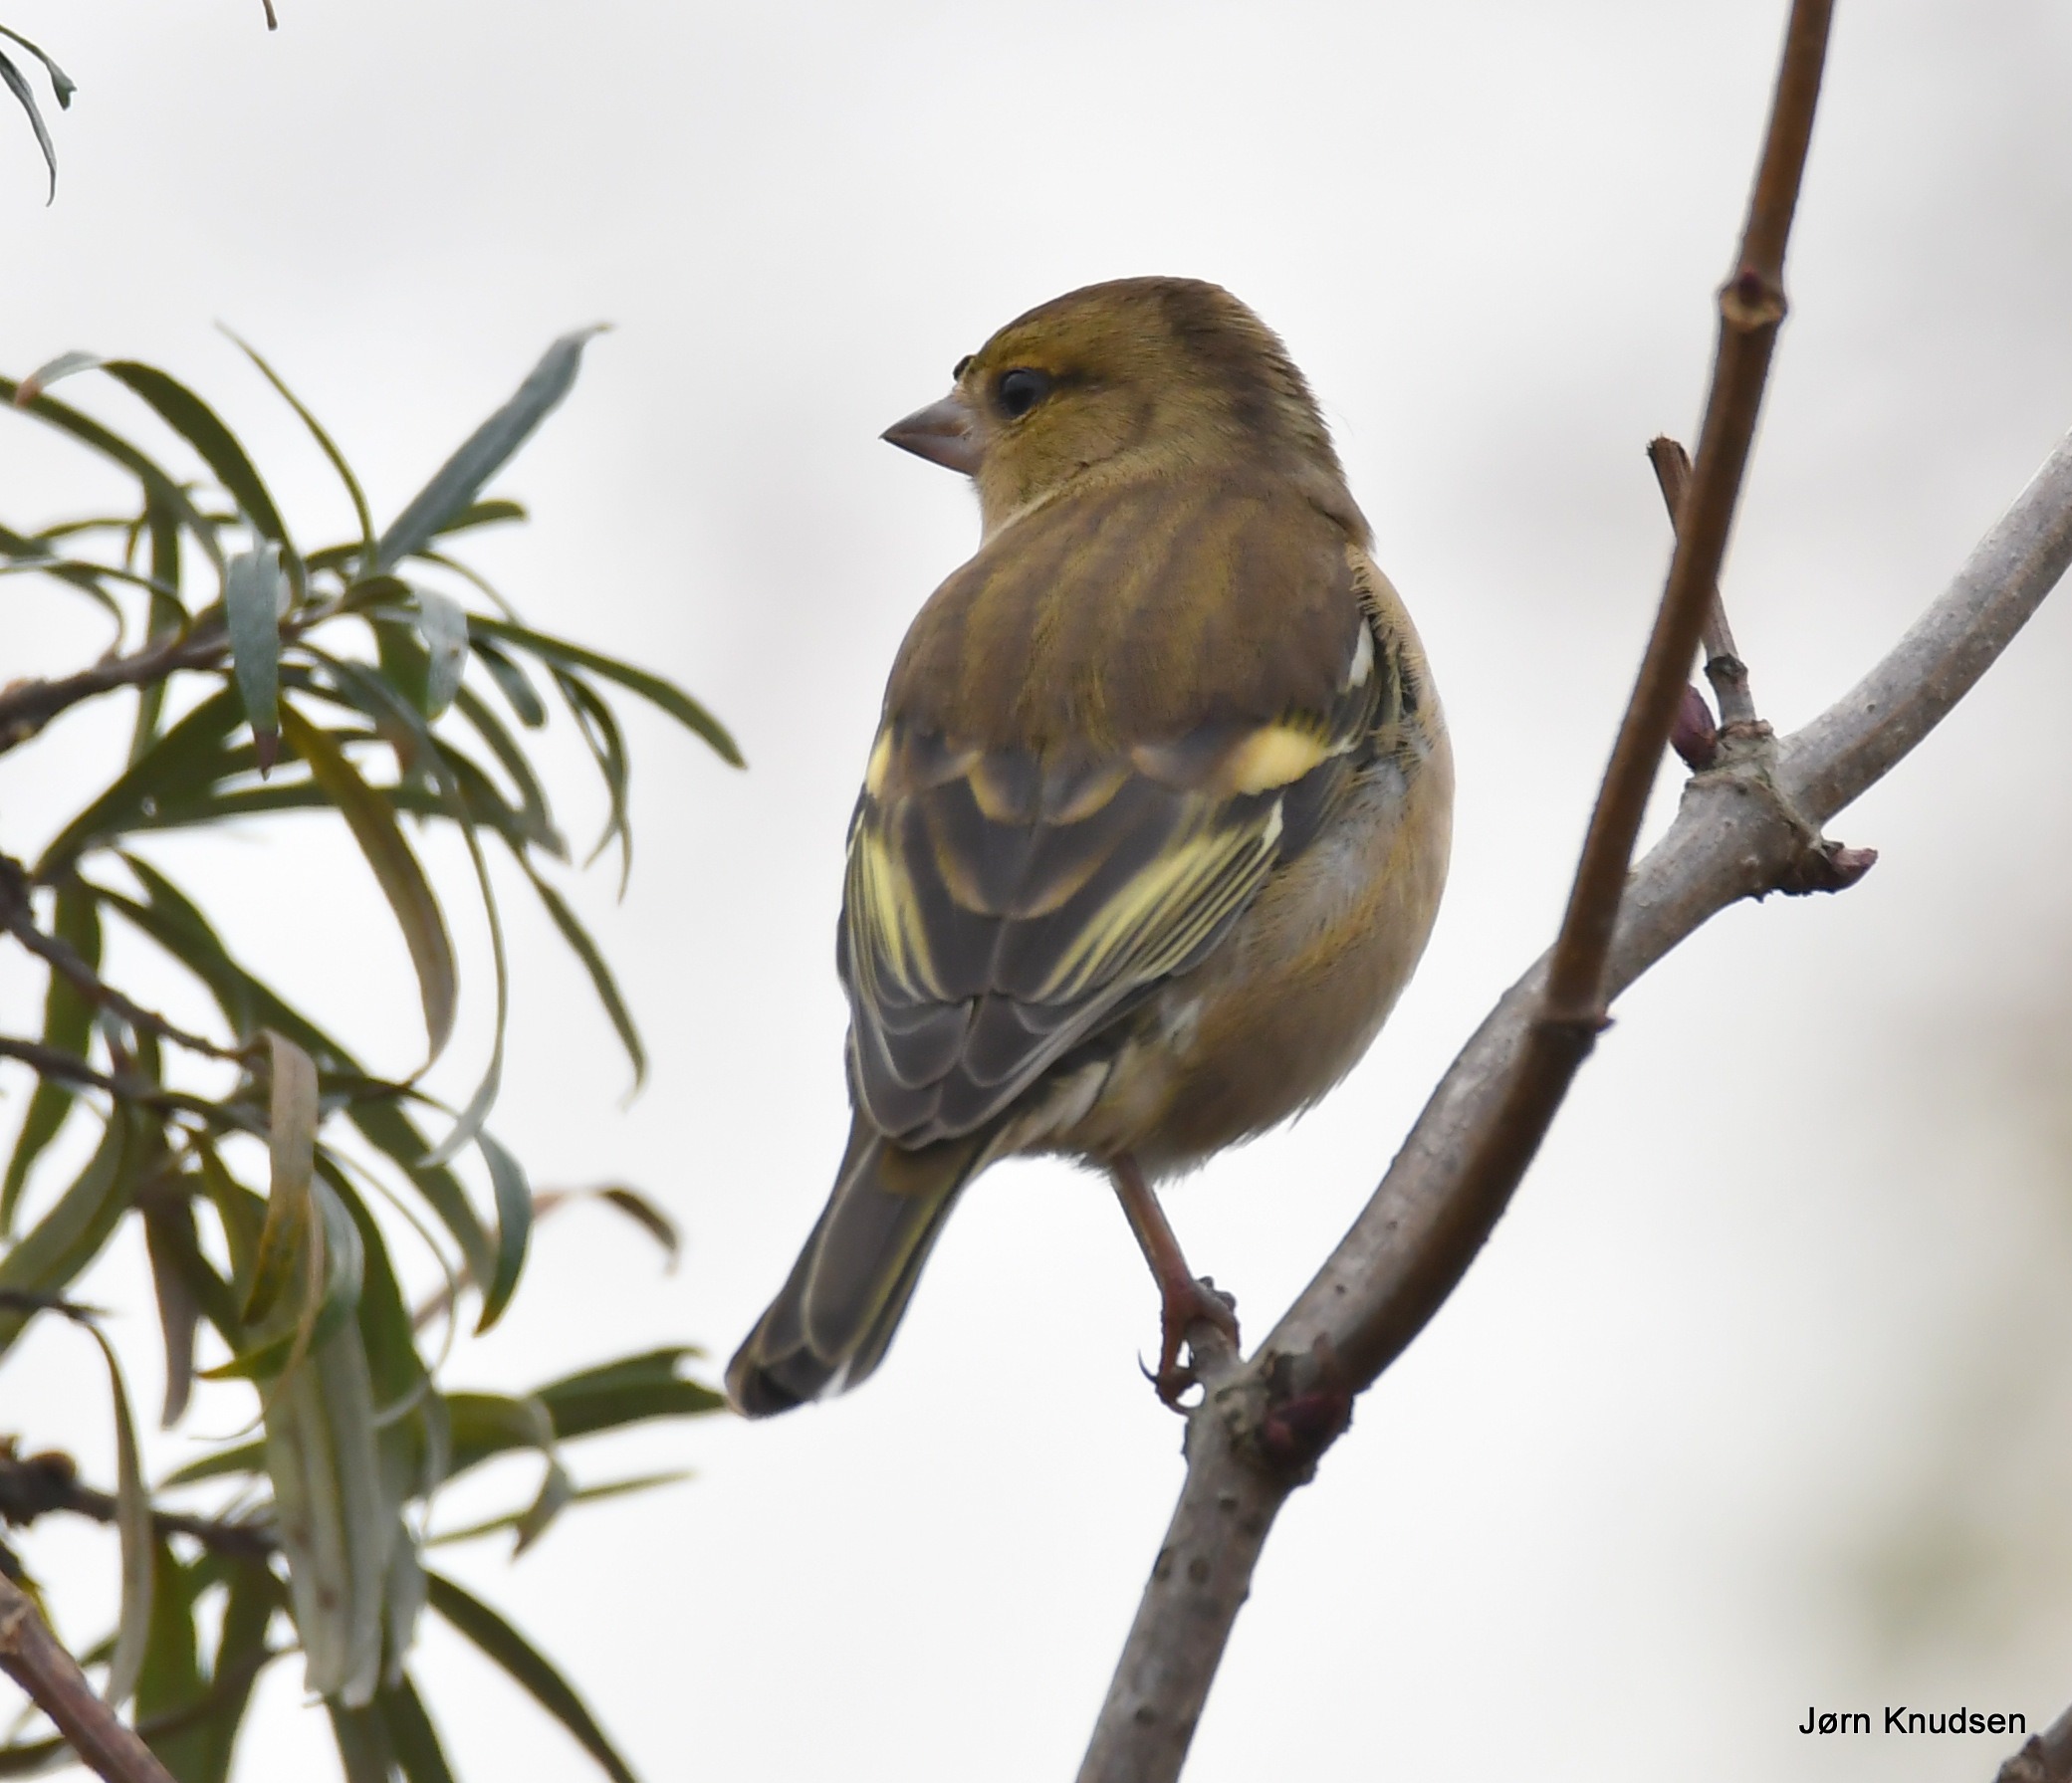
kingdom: Animalia
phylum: Chordata
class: Aves
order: Passeriformes
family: Fringillidae
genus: Fringilla
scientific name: Fringilla coelebs
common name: Bogfinke
